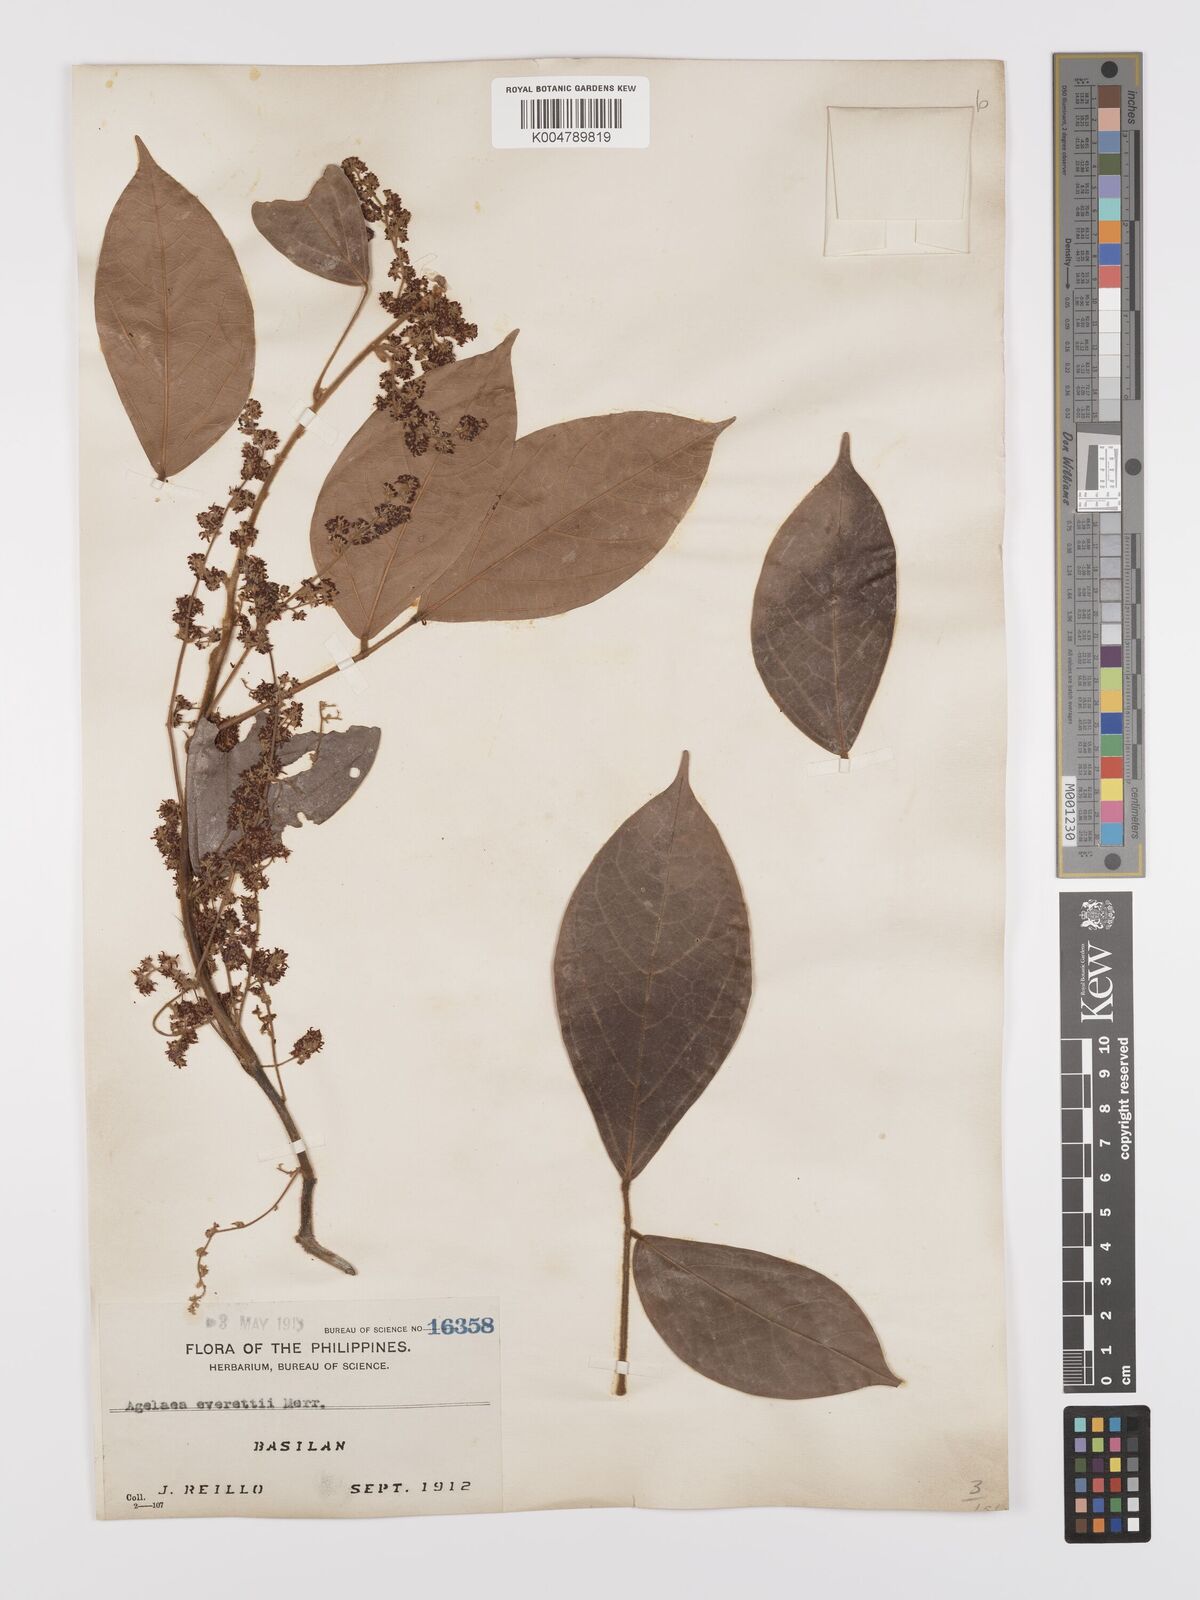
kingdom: Plantae
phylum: Tracheophyta
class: Magnoliopsida
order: Oxalidales
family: Connaraceae
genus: Agelaea
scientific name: Agelaea borneensis
